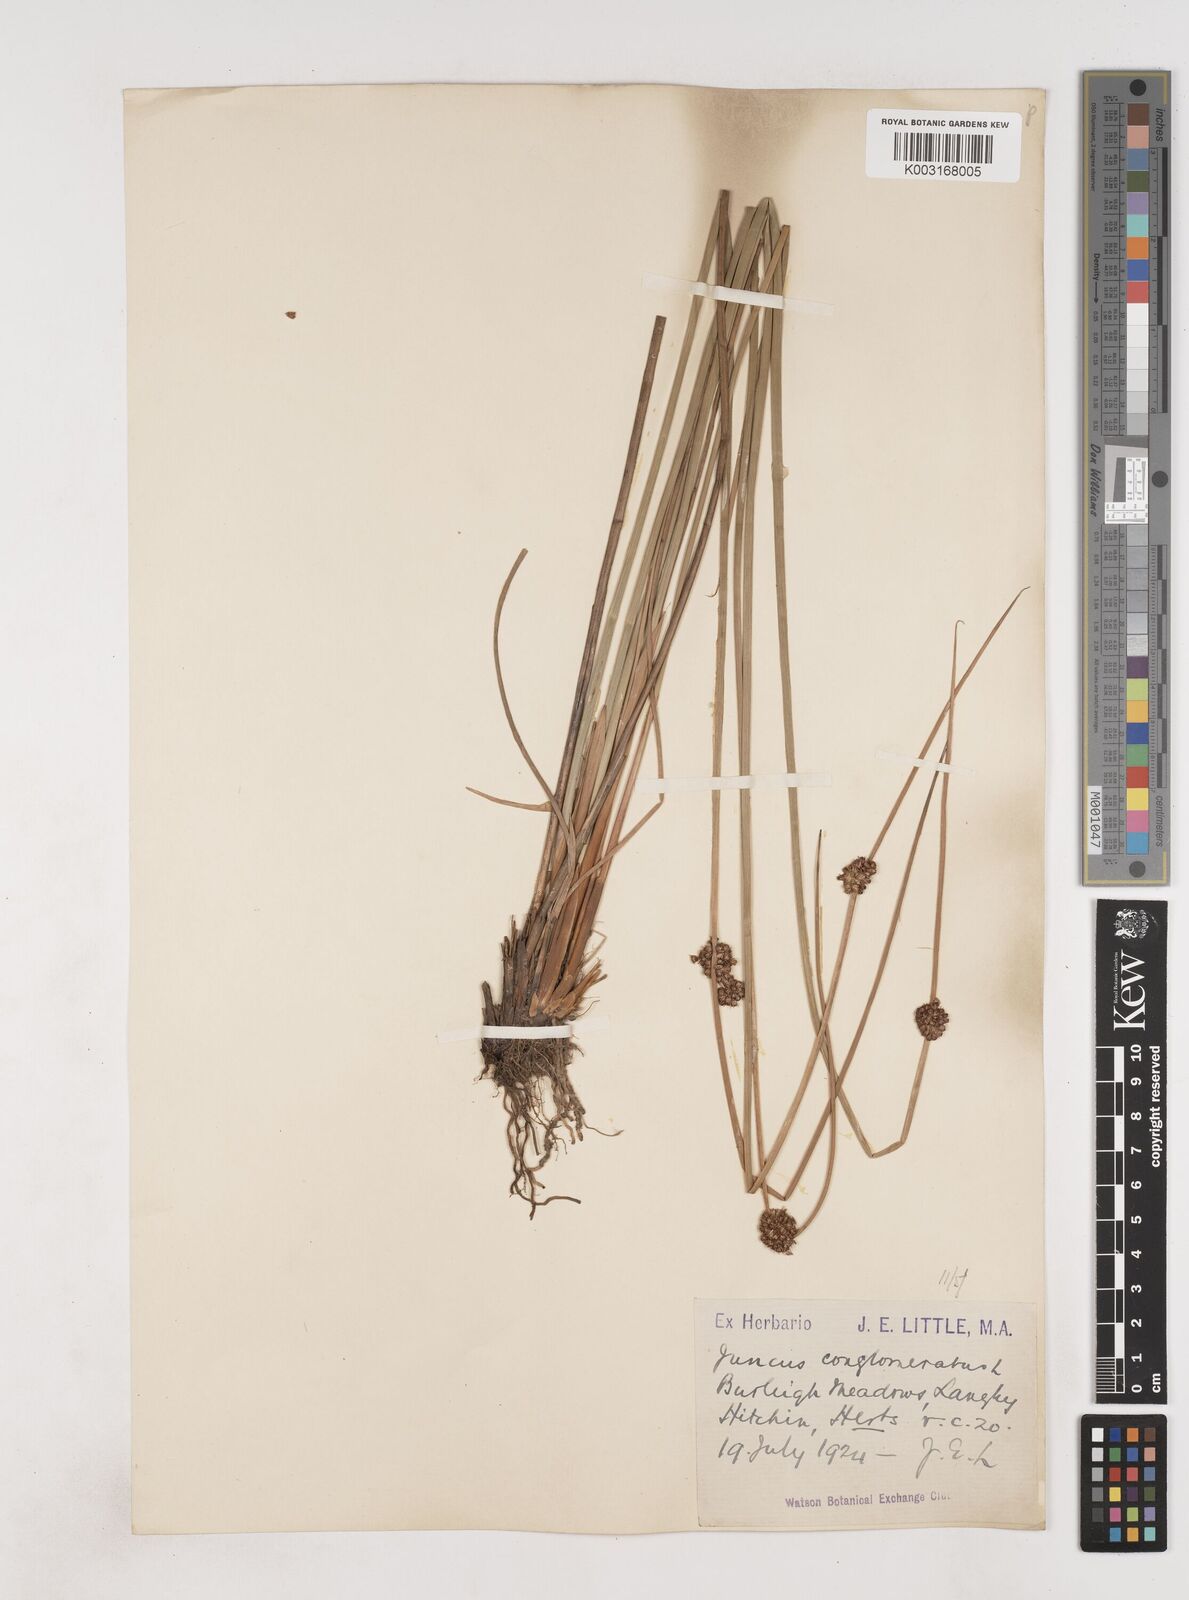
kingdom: Plantae
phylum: Tracheophyta
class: Liliopsida
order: Poales
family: Juncaceae
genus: Juncus
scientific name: Juncus conglomeratus
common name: Compact rush
